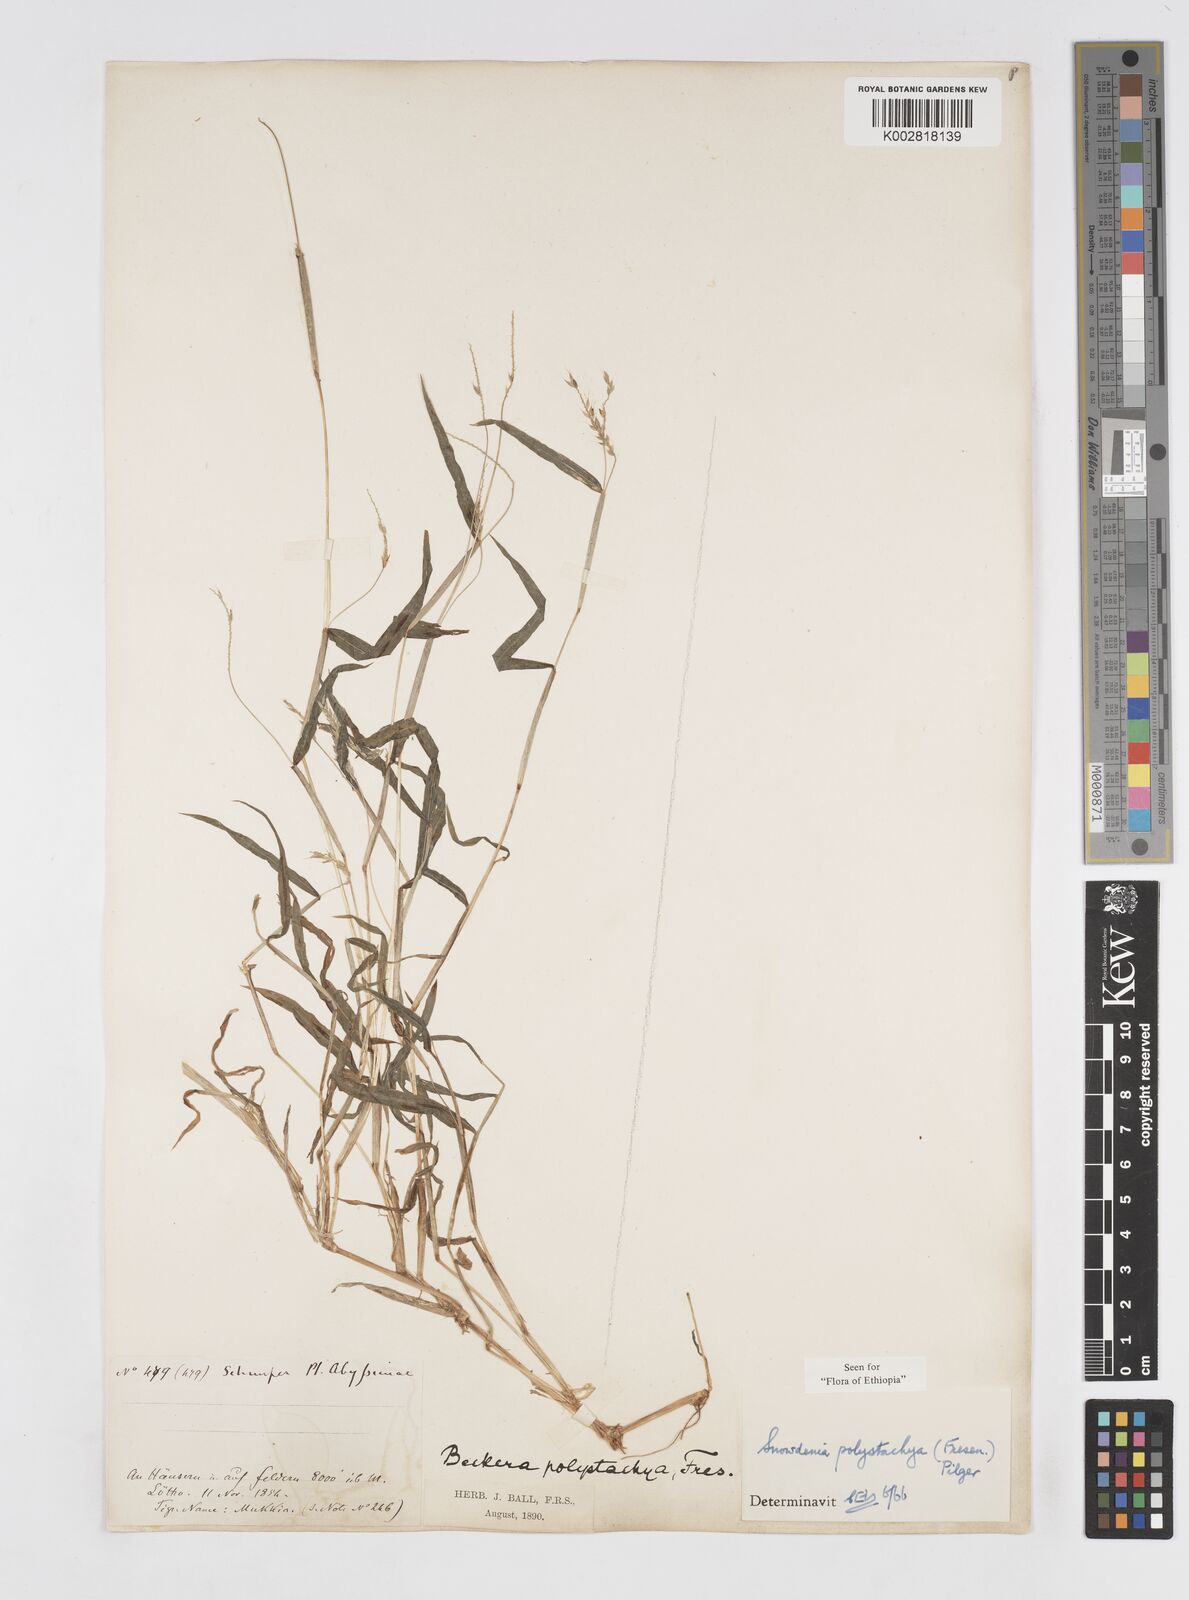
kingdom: Plantae
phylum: Tracheophyta
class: Liliopsida
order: Poales
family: Poaceae
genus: Snowdenia
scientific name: Snowdenia polystachya
